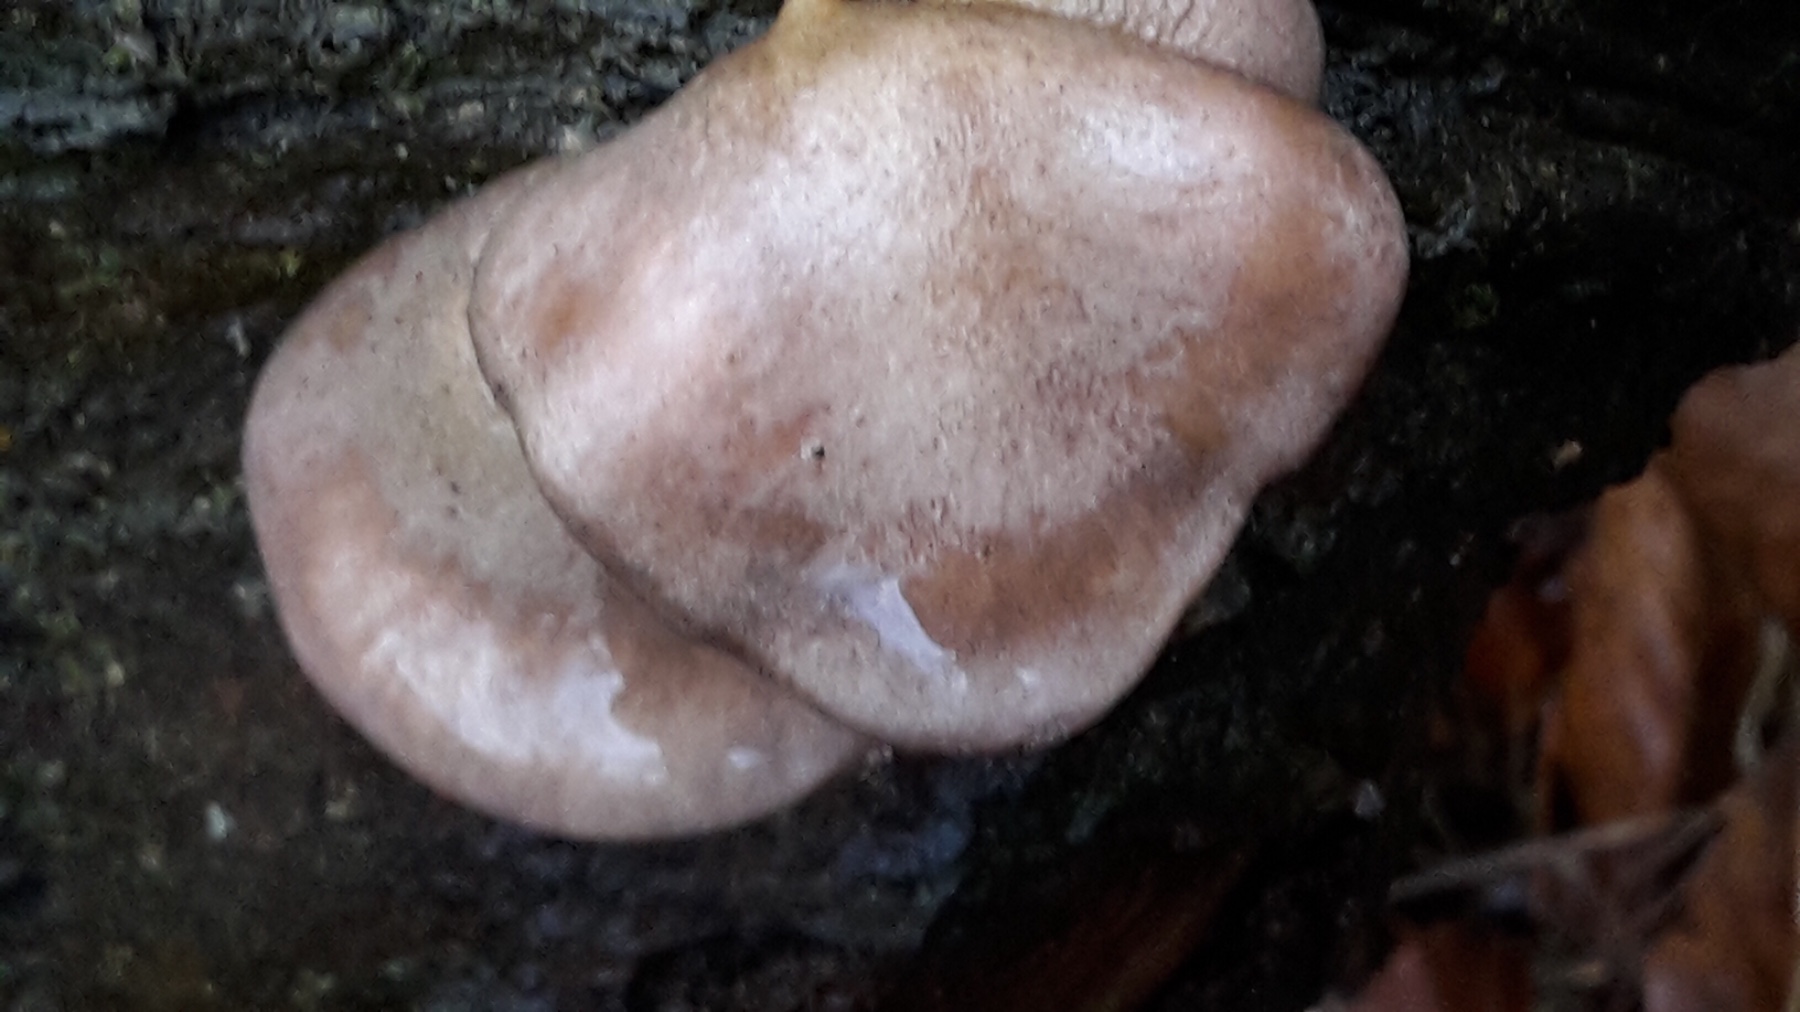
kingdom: Fungi
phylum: Basidiomycota
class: Agaricomycetes
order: Agaricales
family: Sarcomyxaceae
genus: Sarcomyxa
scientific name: Sarcomyxa serotina
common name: gummihat
